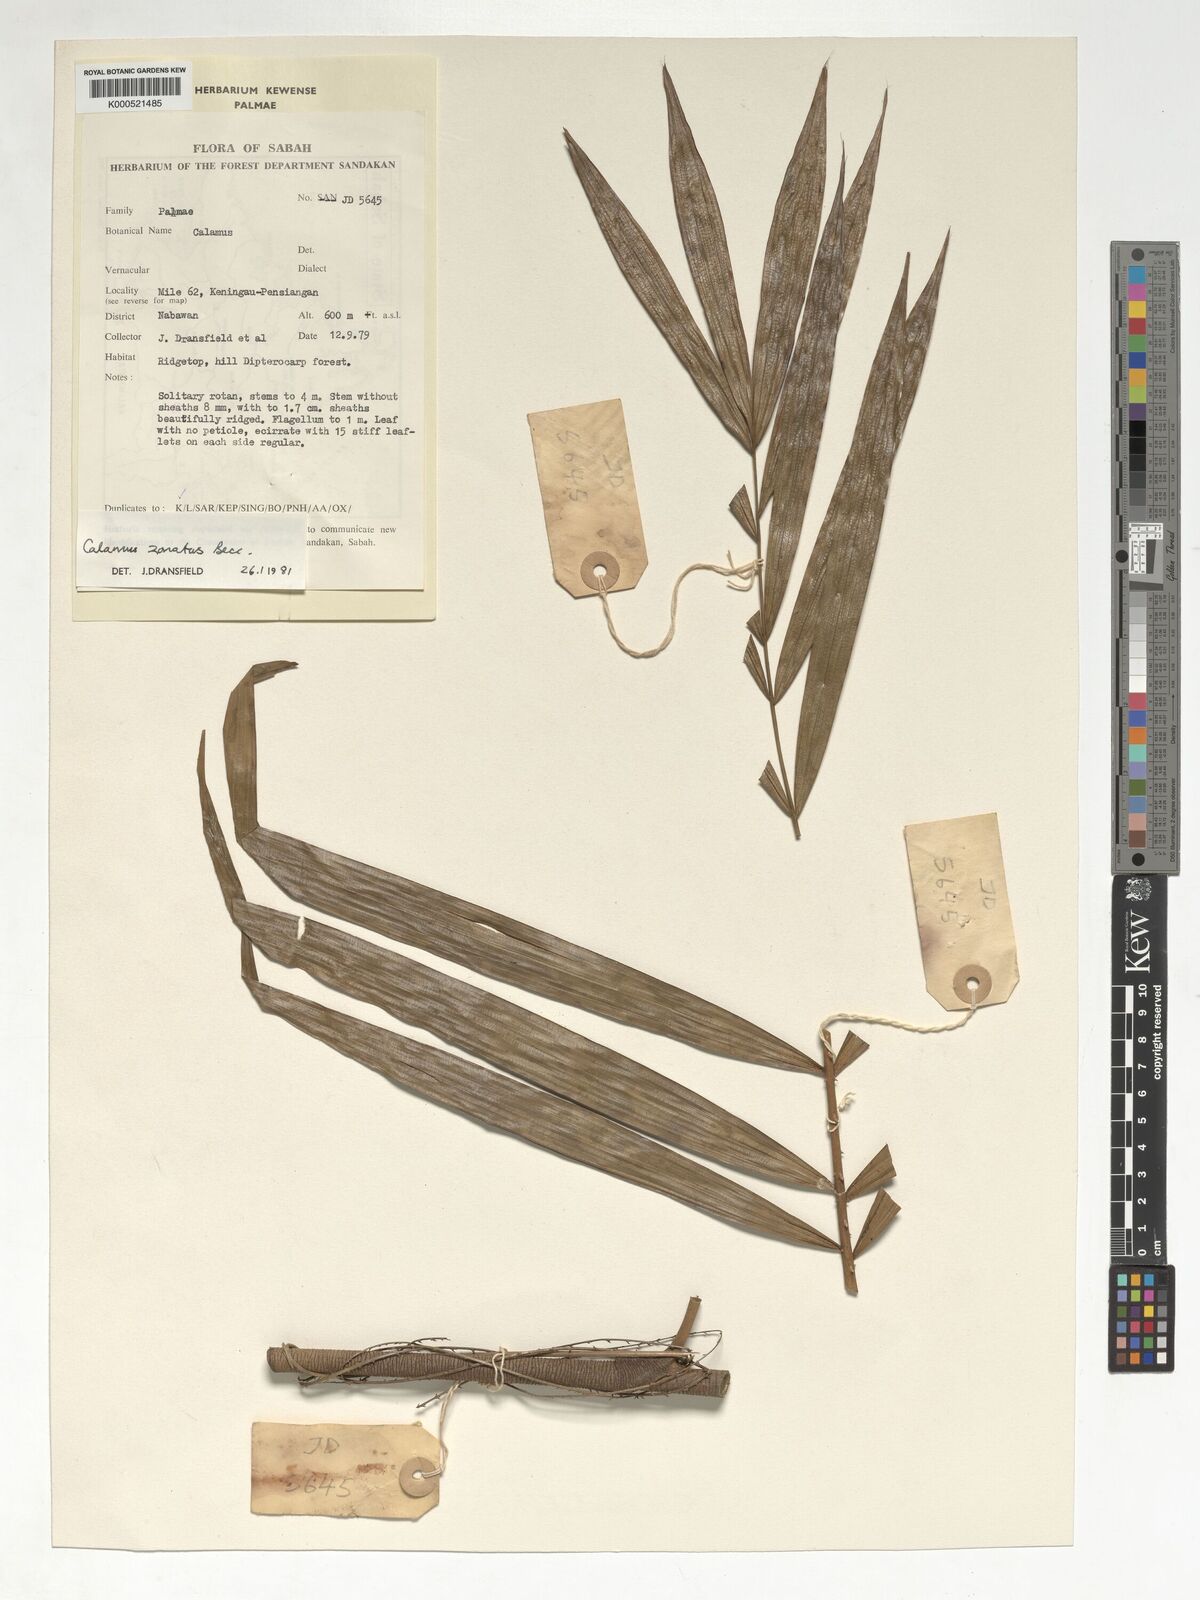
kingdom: Plantae
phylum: Tracheophyta
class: Liliopsida
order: Arecales
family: Arecaceae
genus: Calamus
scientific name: Calamus zonatus
